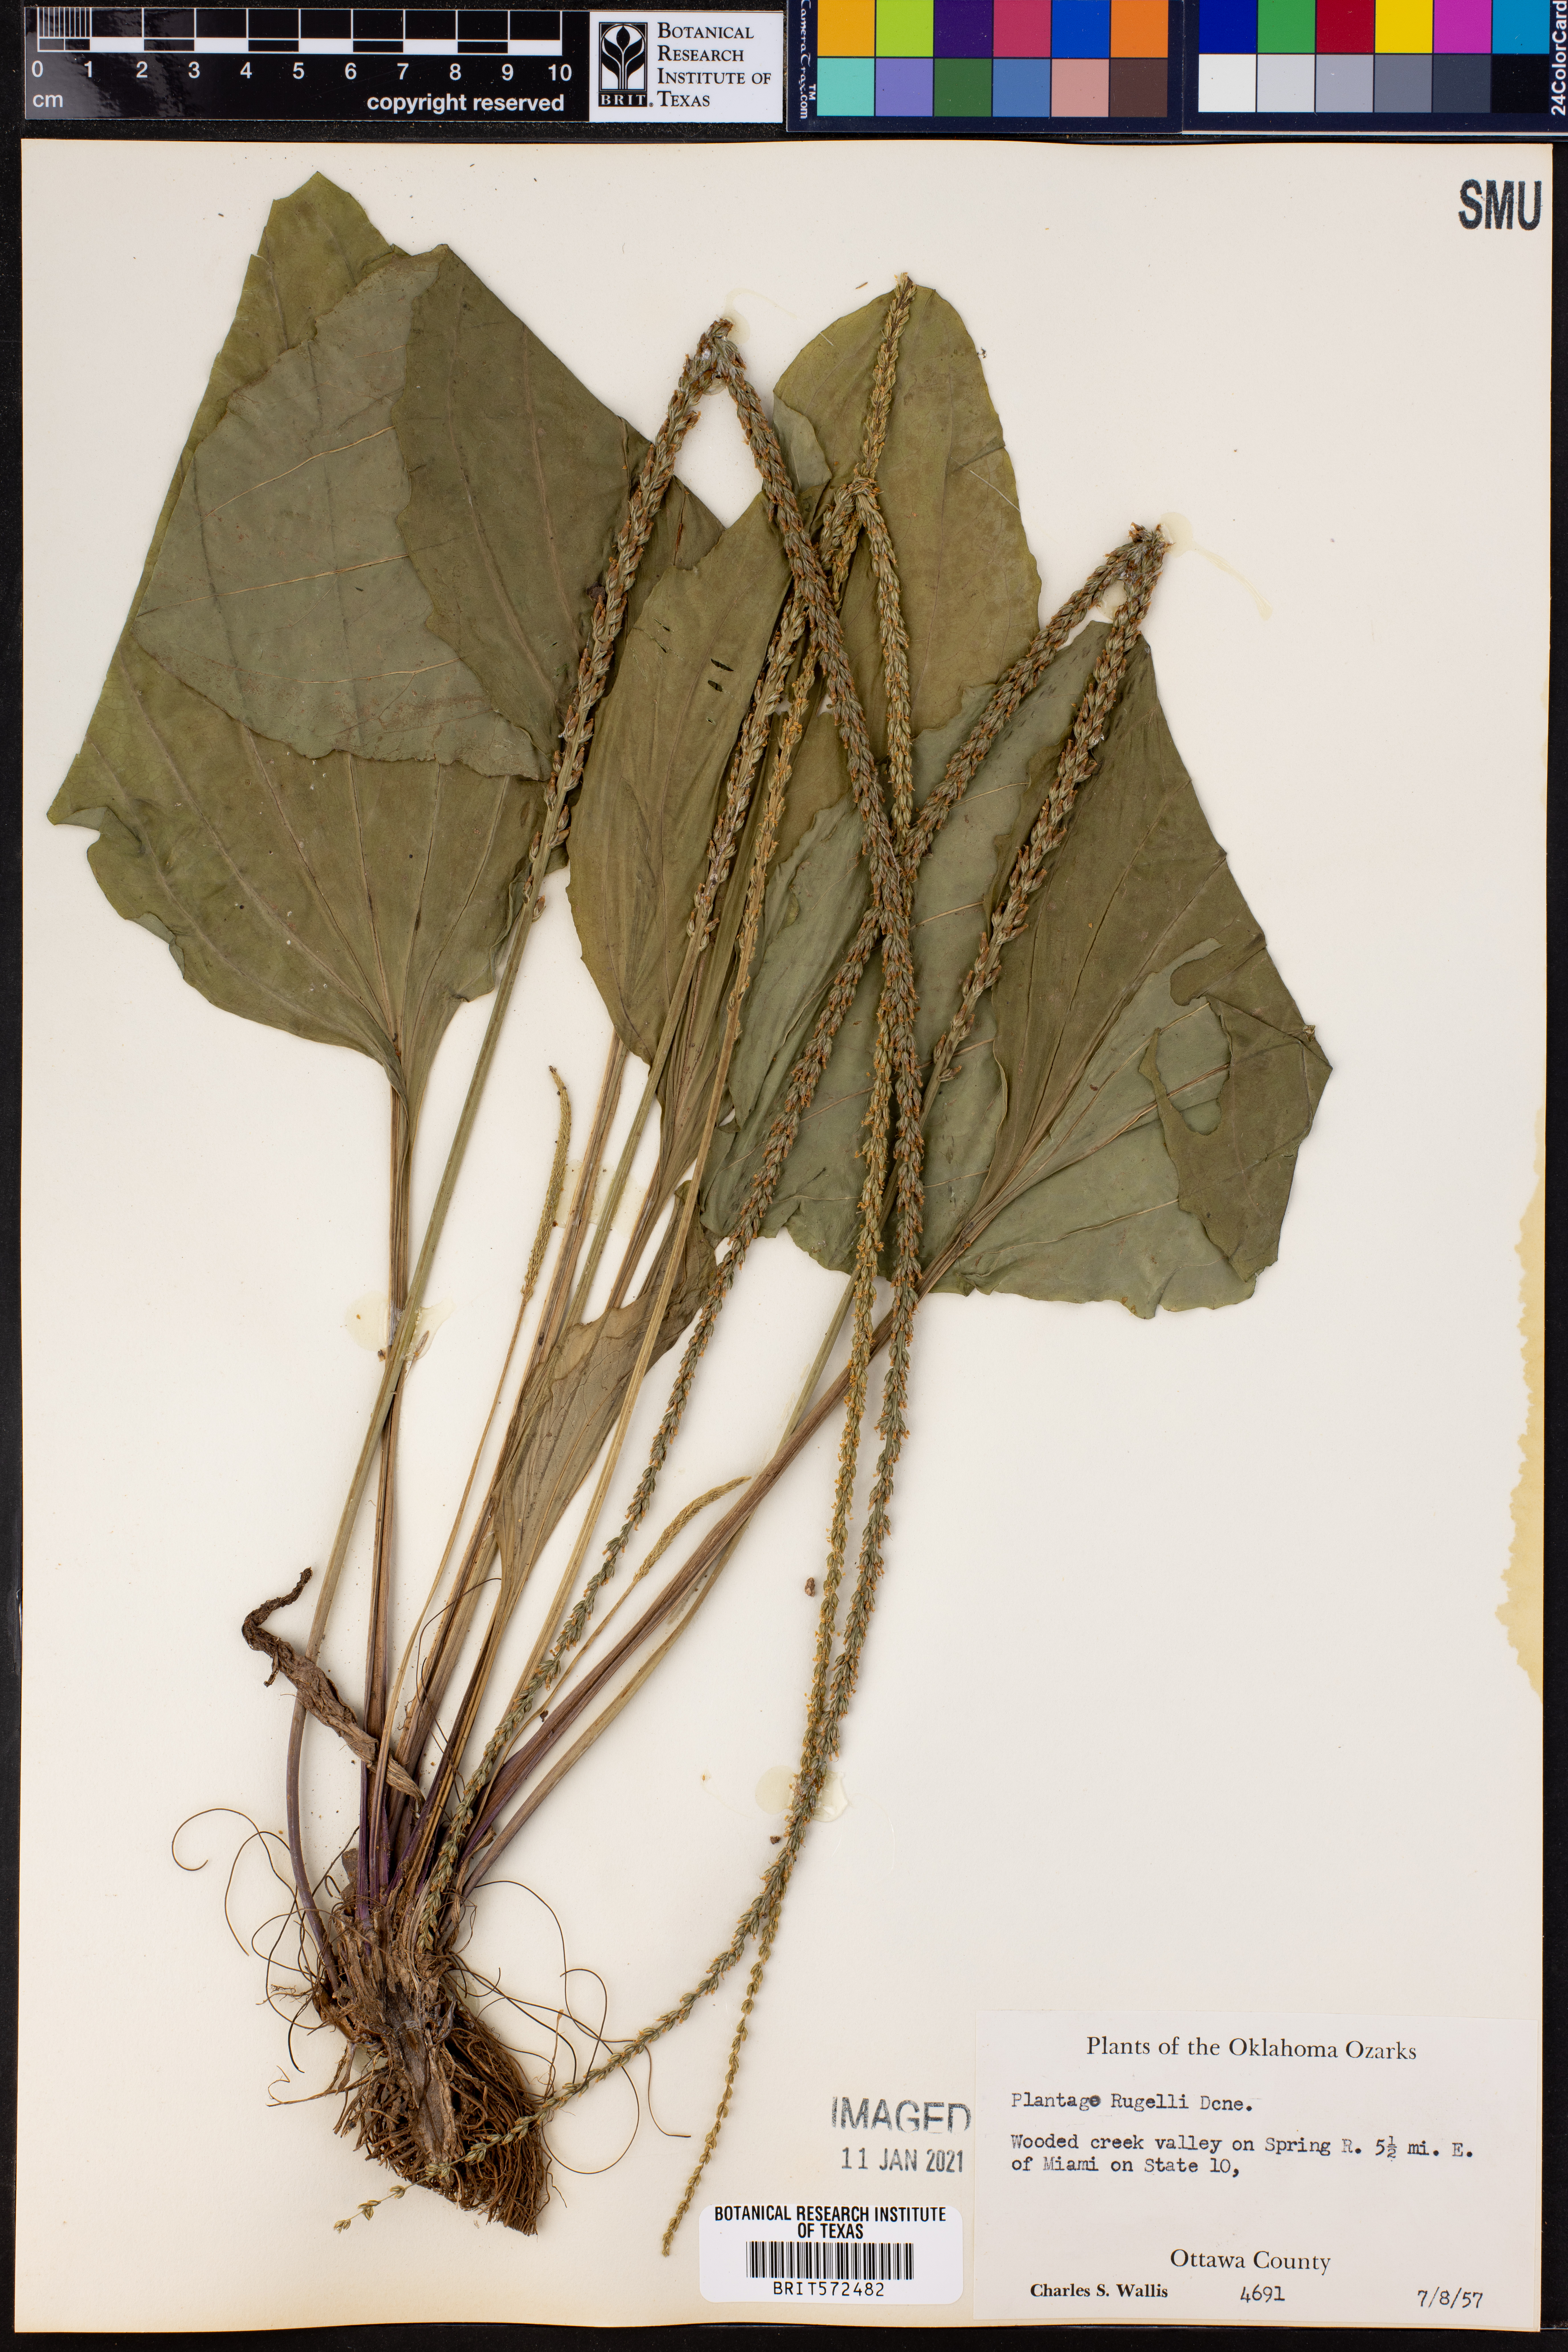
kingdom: Plantae
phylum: Tracheophyta
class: Magnoliopsida
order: Lamiales
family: Plantaginaceae
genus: Plantago
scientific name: Plantago rugelii
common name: American plantain
